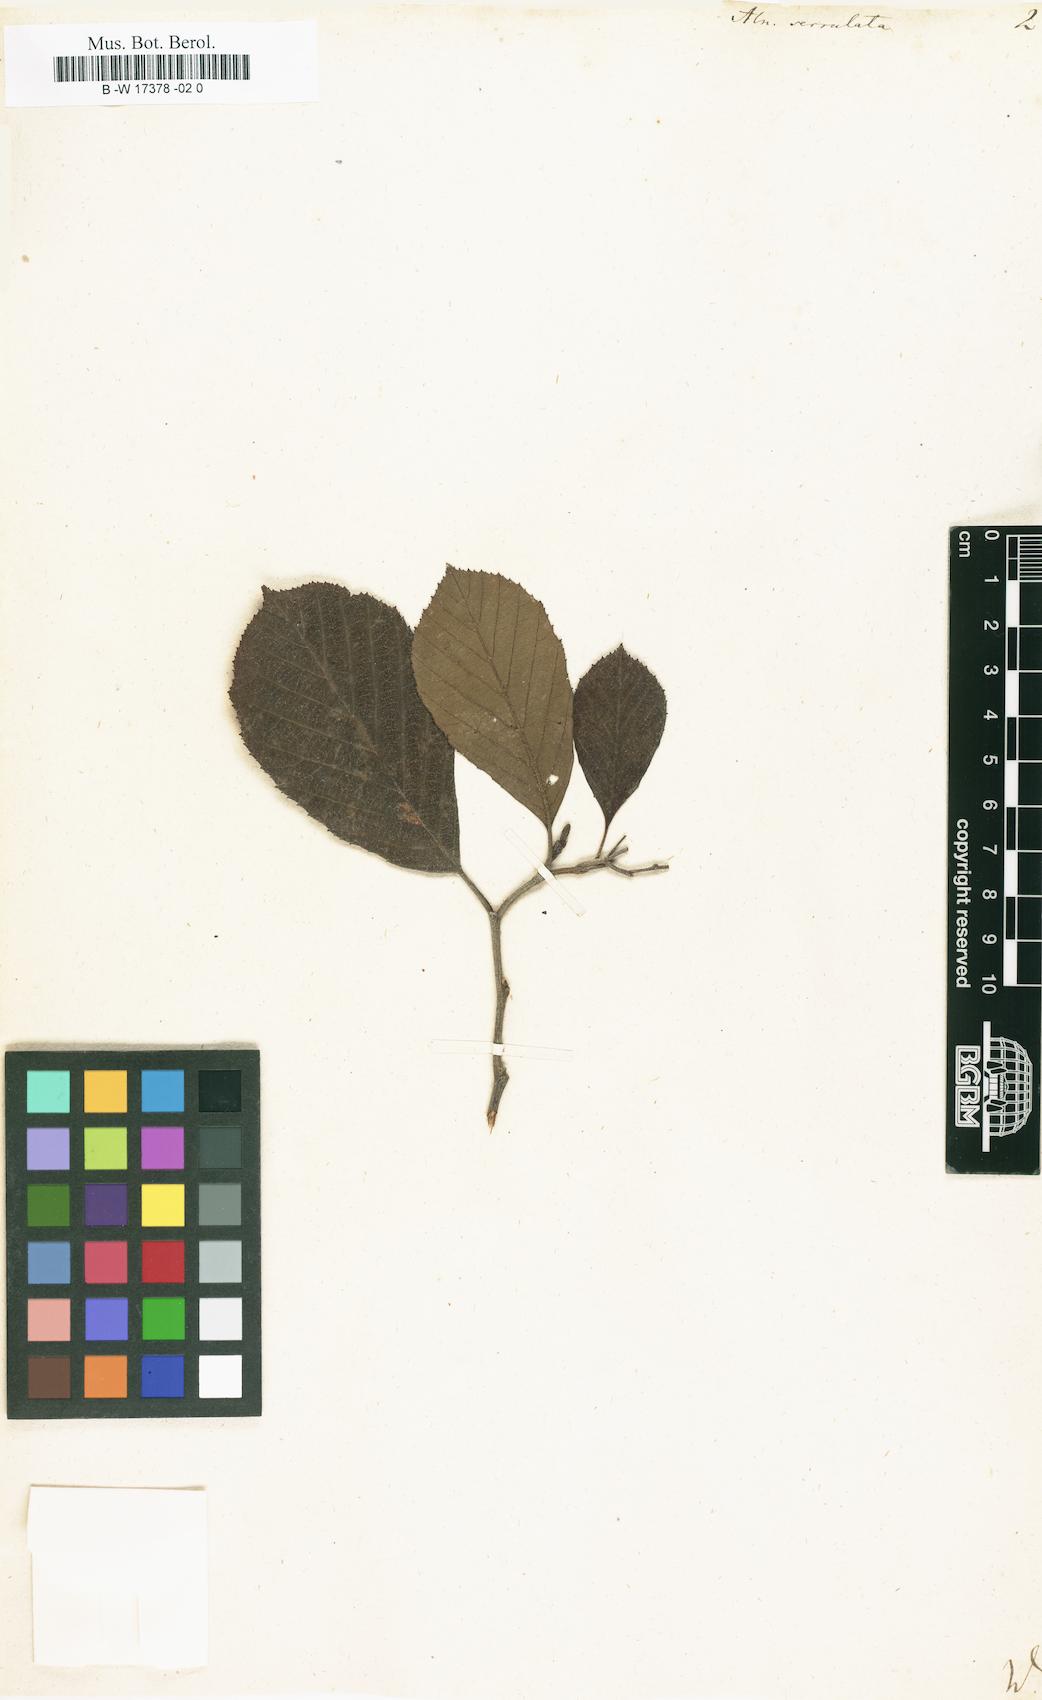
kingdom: Plantae
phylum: Tracheophyta
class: Magnoliopsida
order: Fagales
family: Betulaceae
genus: Alnus
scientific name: Alnus serrulata
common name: Hazel alder
